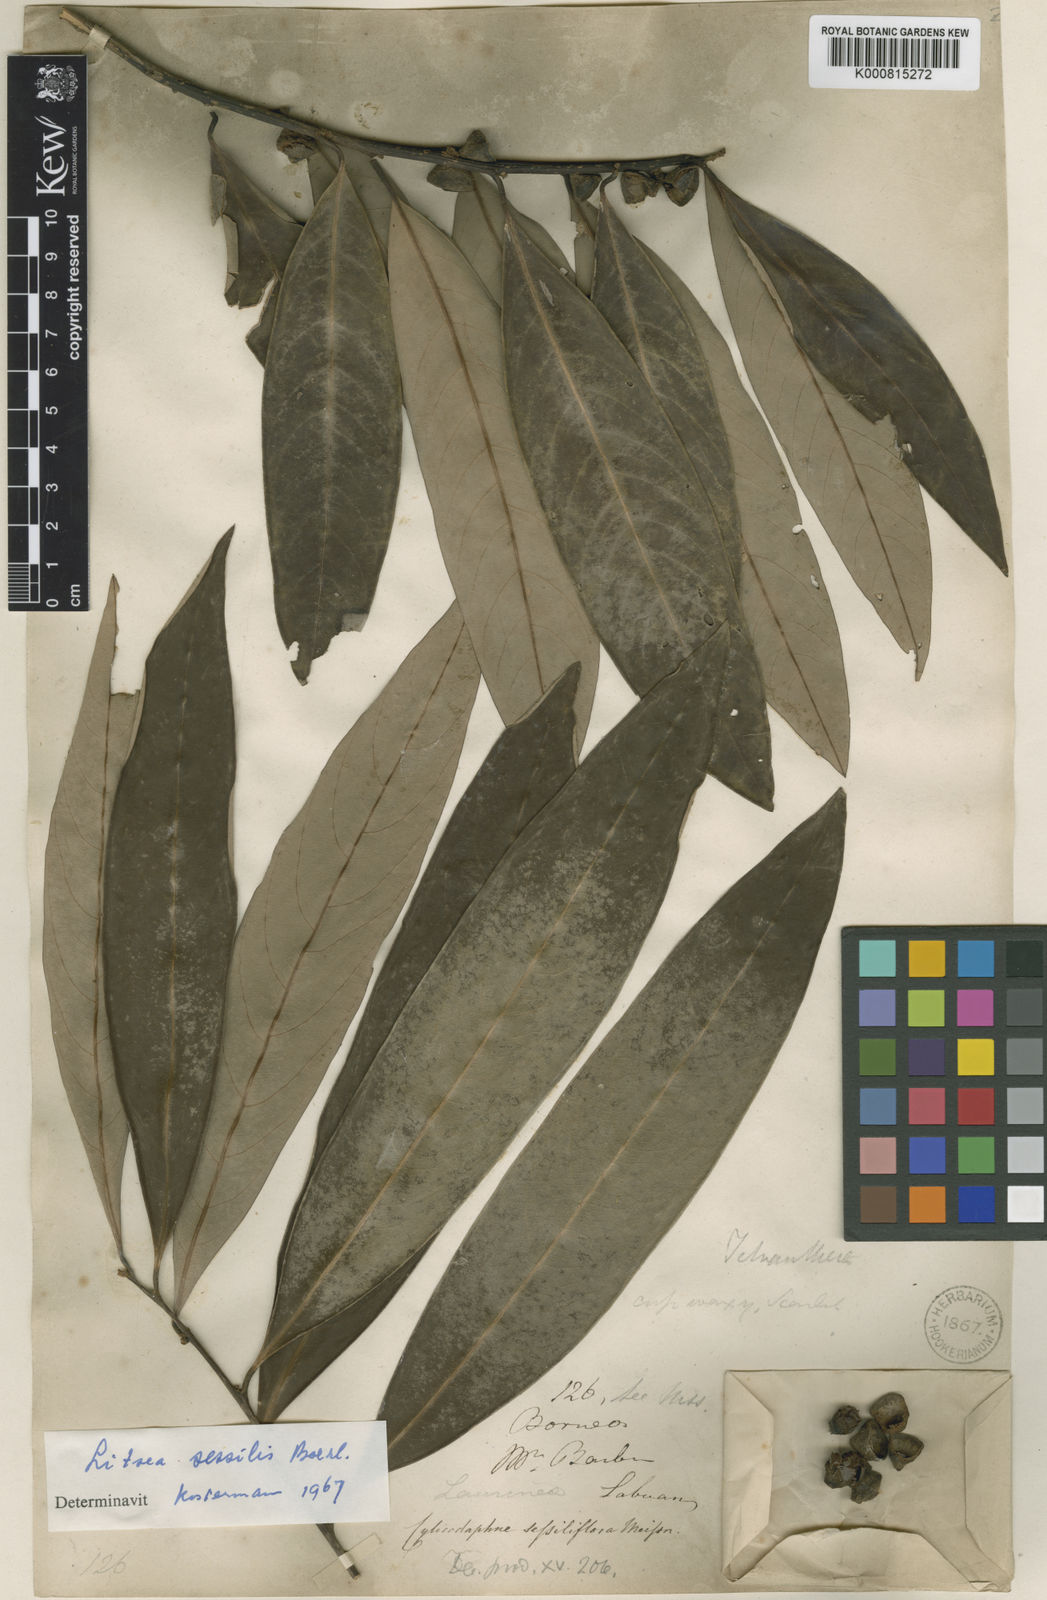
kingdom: Plantae
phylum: Tracheophyta
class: Magnoliopsida
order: Laurales
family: Lauraceae
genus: Litsea
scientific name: Litsea sessilis
